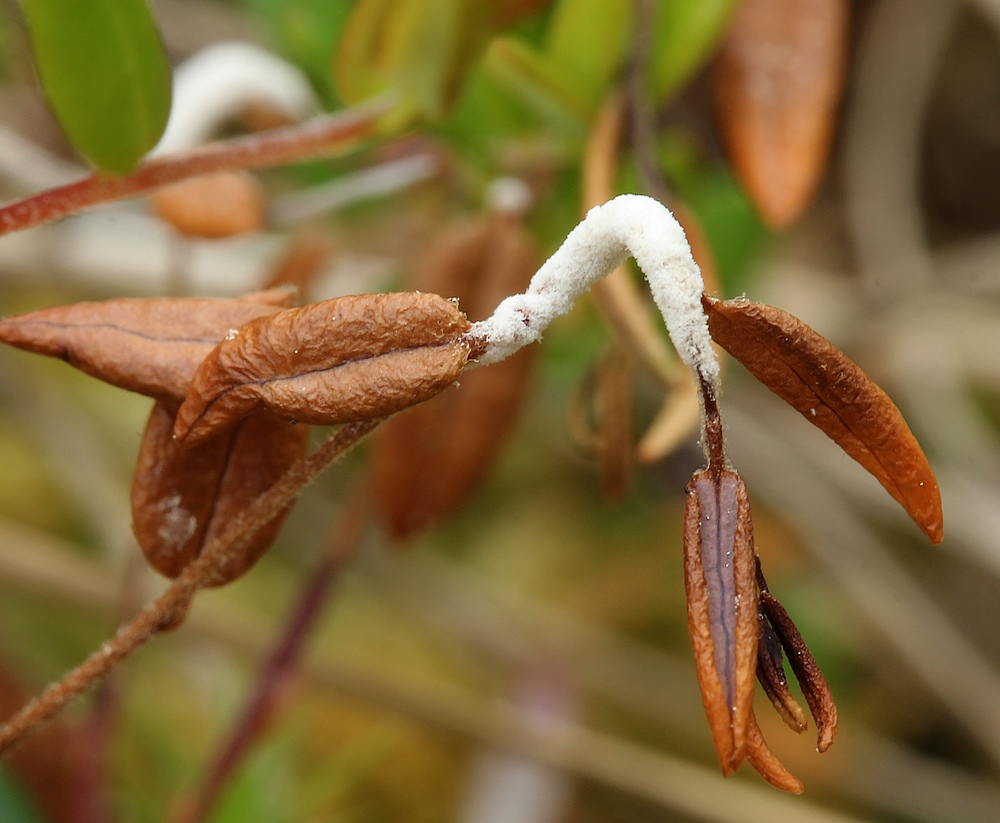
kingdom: Fungi
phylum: Ascomycota
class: Leotiomycetes
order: Helotiales
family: Sclerotiniaceae
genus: Monilinia
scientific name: Monilinia oxycocci
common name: tranebær-knoldskive
